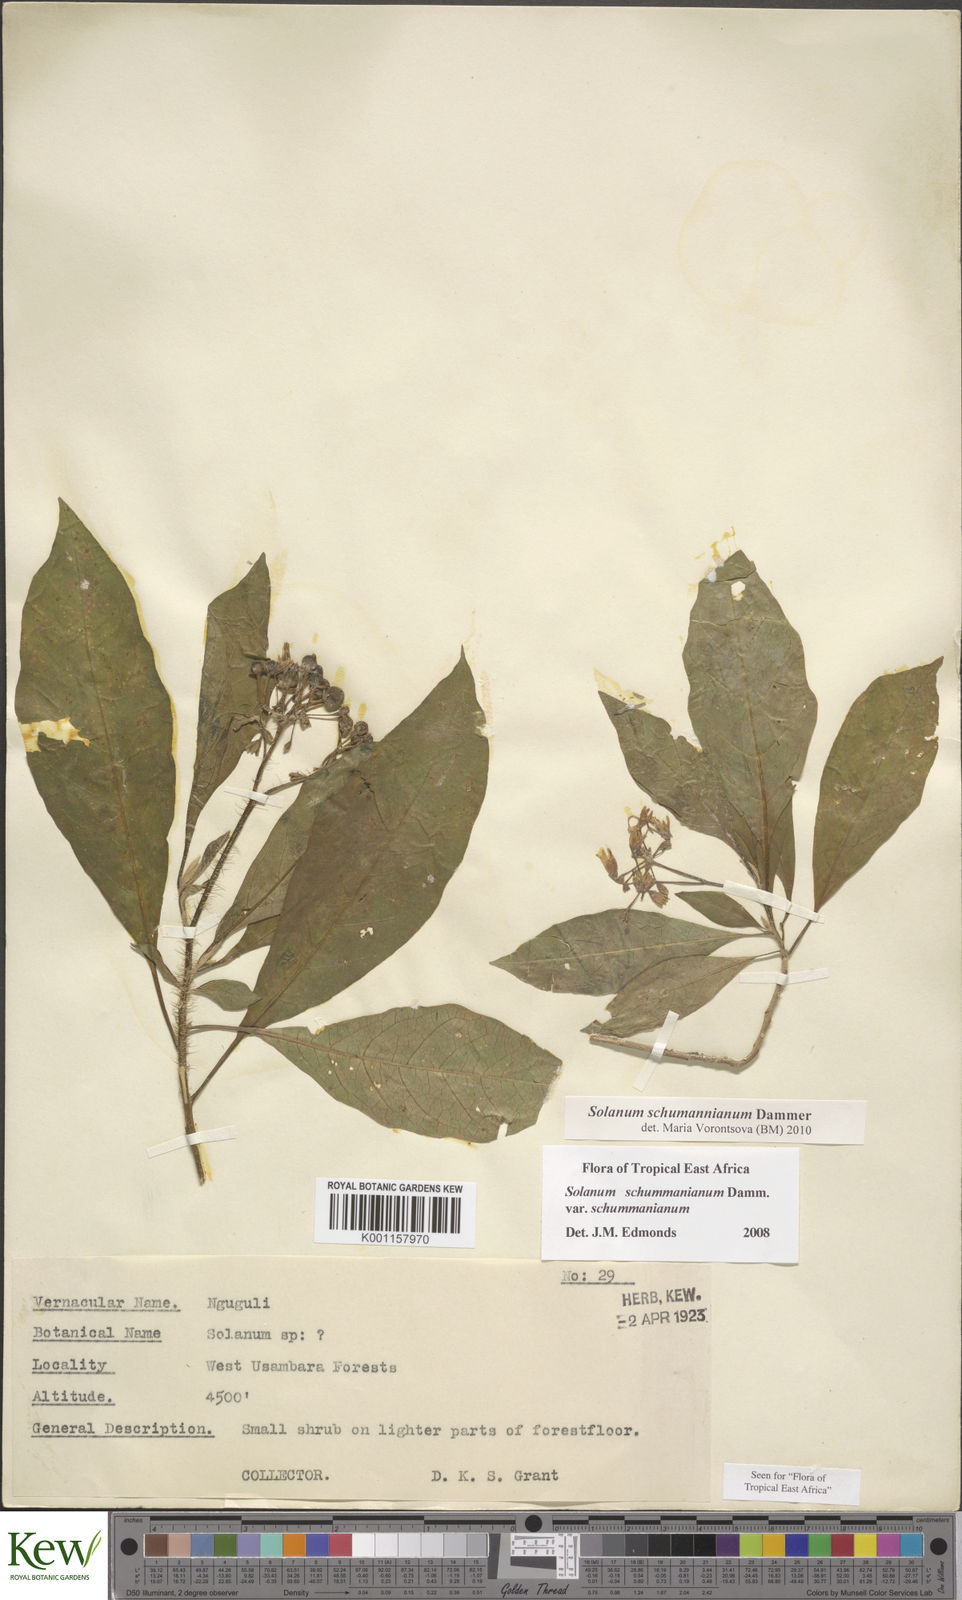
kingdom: Plantae
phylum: Tracheophyta
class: Magnoliopsida
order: Solanales
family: Solanaceae
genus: Solanum
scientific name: Solanum schumannianum
